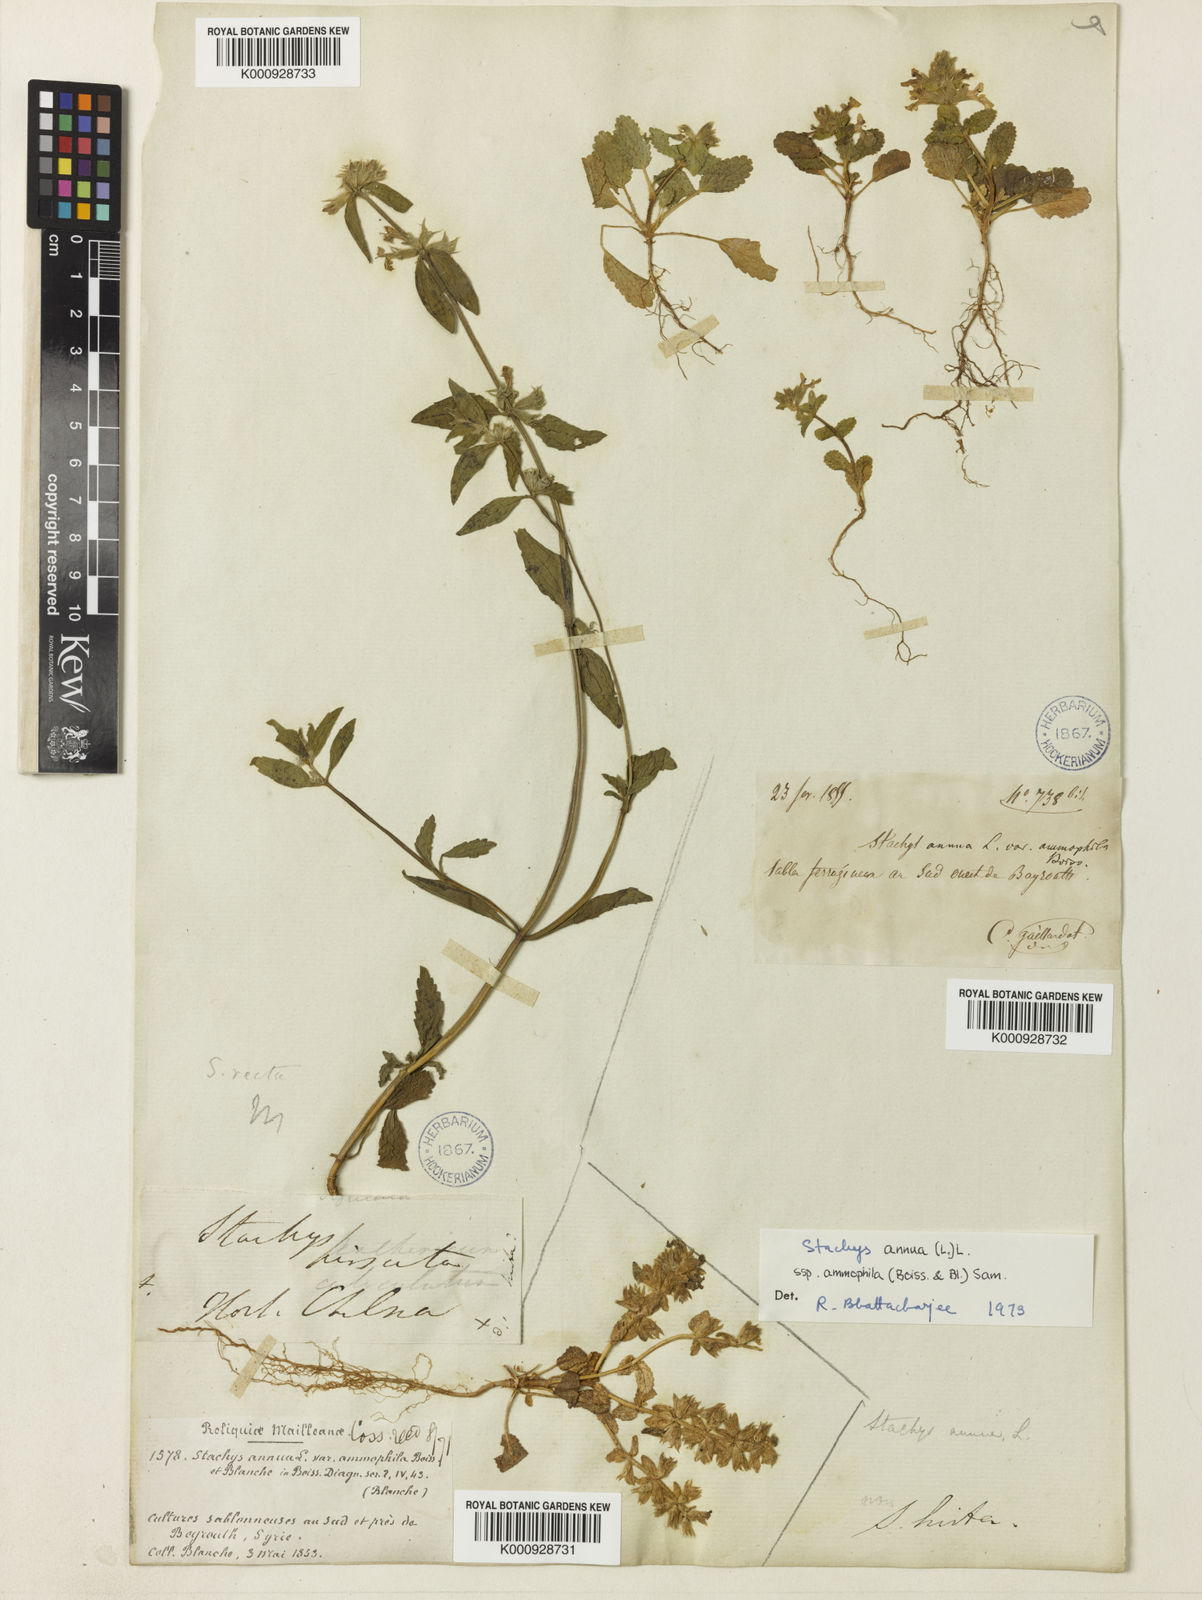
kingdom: Plantae
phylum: Tracheophyta
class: Magnoliopsida
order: Lamiales
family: Lamiaceae
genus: Stachys
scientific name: Stachys annua
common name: Annual yellow-woundwort
